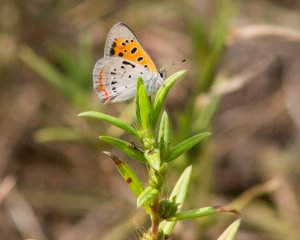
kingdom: Animalia
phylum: Arthropoda
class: Insecta
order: Lepidoptera
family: Lycaenidae
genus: Lycaena
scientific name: Lycaena phlaeas
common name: American Copper
